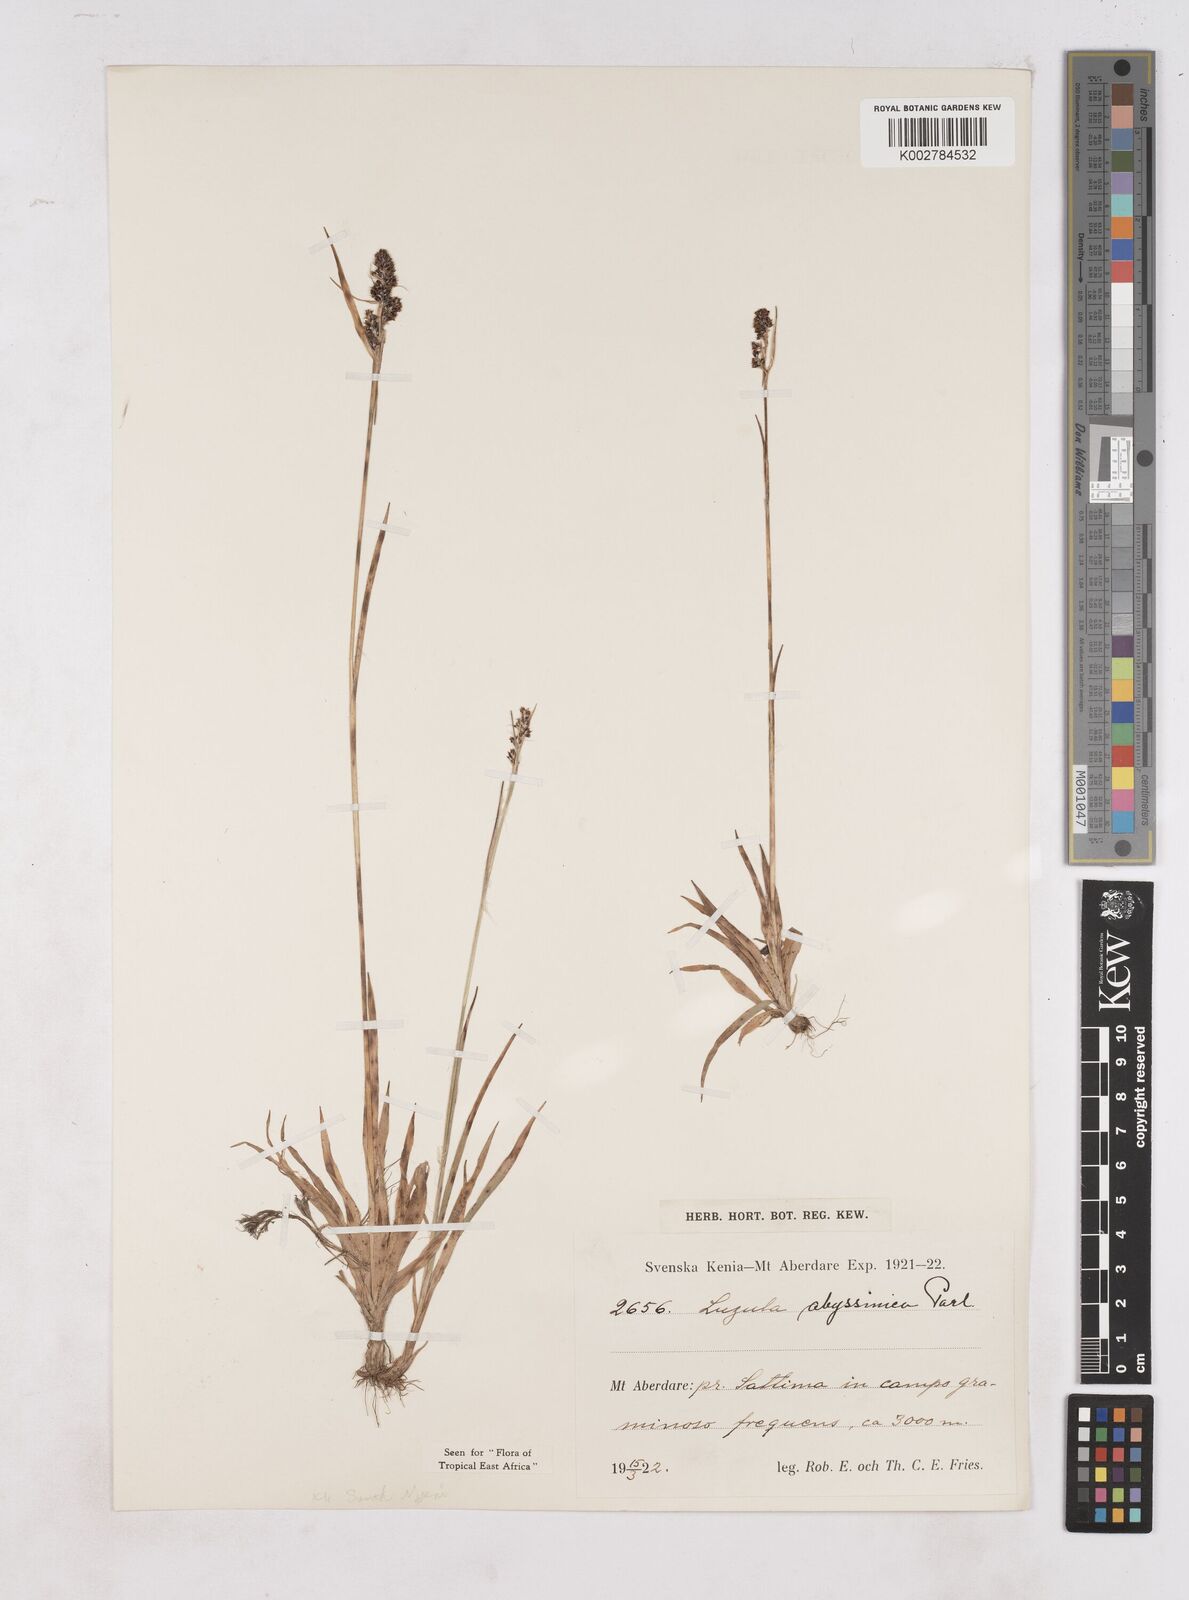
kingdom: Plantae
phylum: Tracheophyta
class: Liliopsida
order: Poales
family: Juncaceae
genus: Luzula
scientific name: Luzula abyssinica
